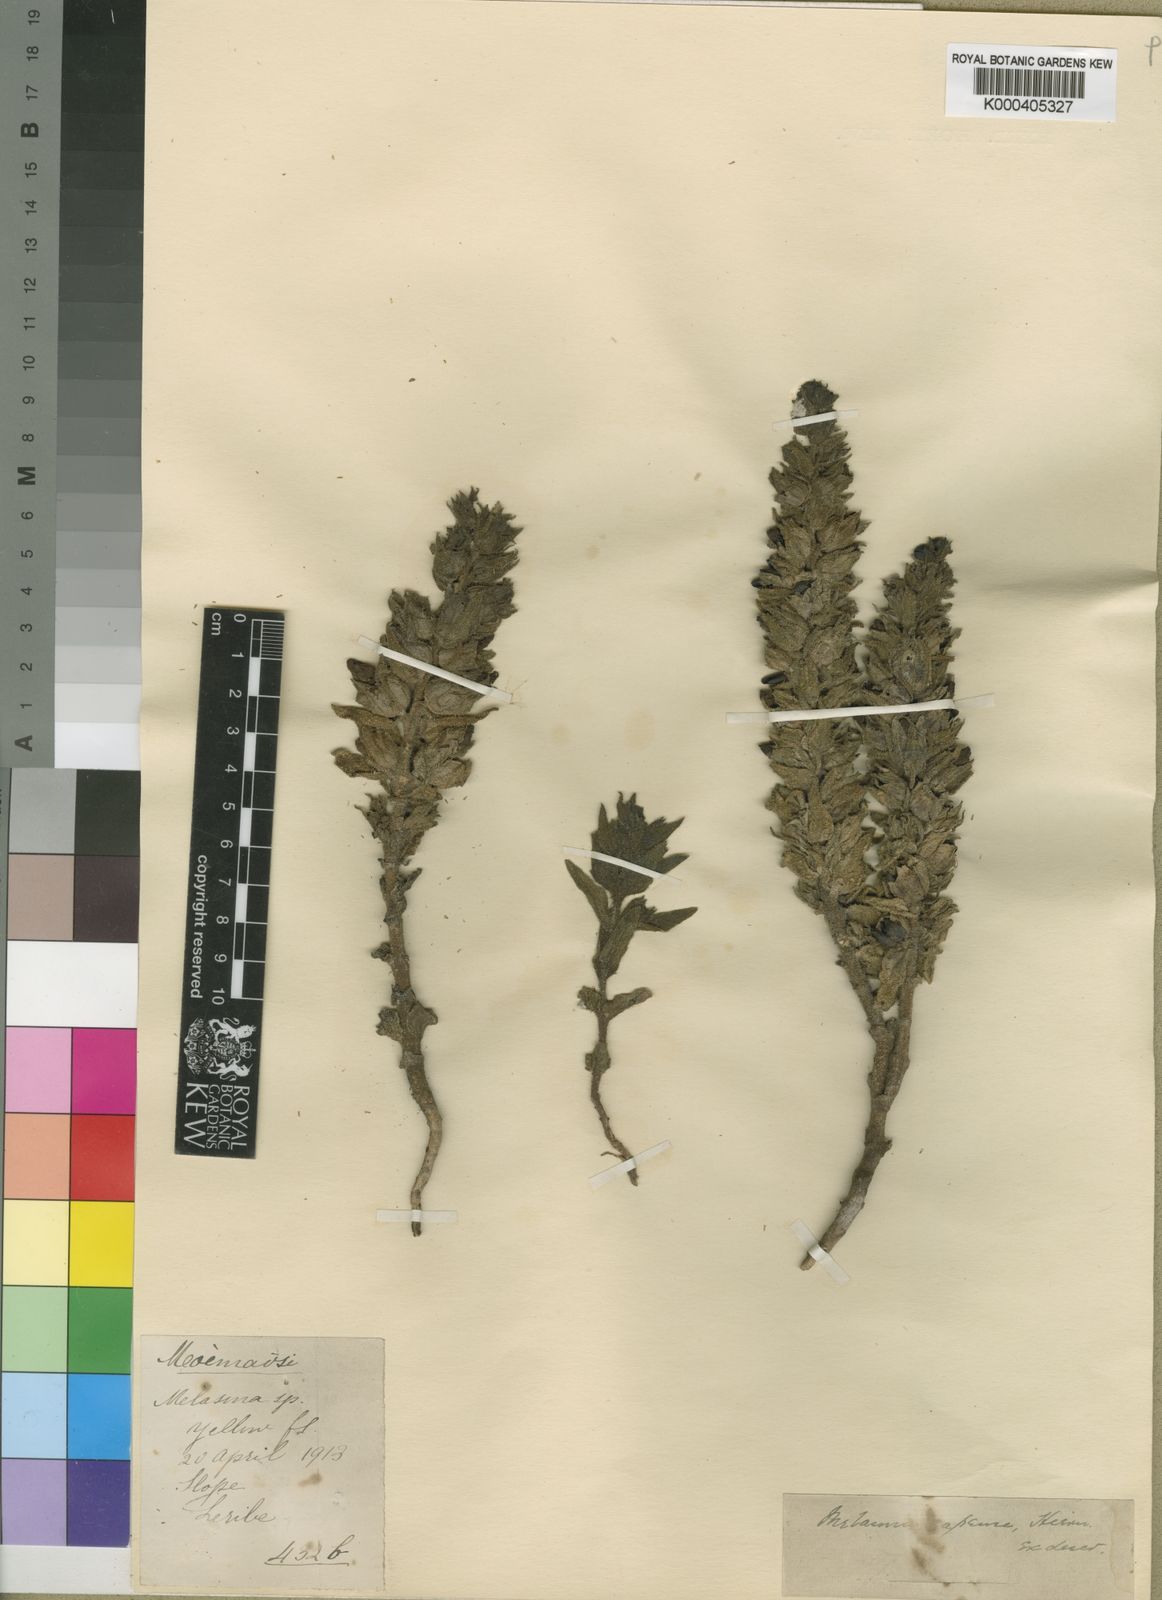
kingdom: Plantae
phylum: Tracheophyta
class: Magnoliopsida
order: Lamiales
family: Orobanchaceae
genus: Alectra
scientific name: Alectra basutica
